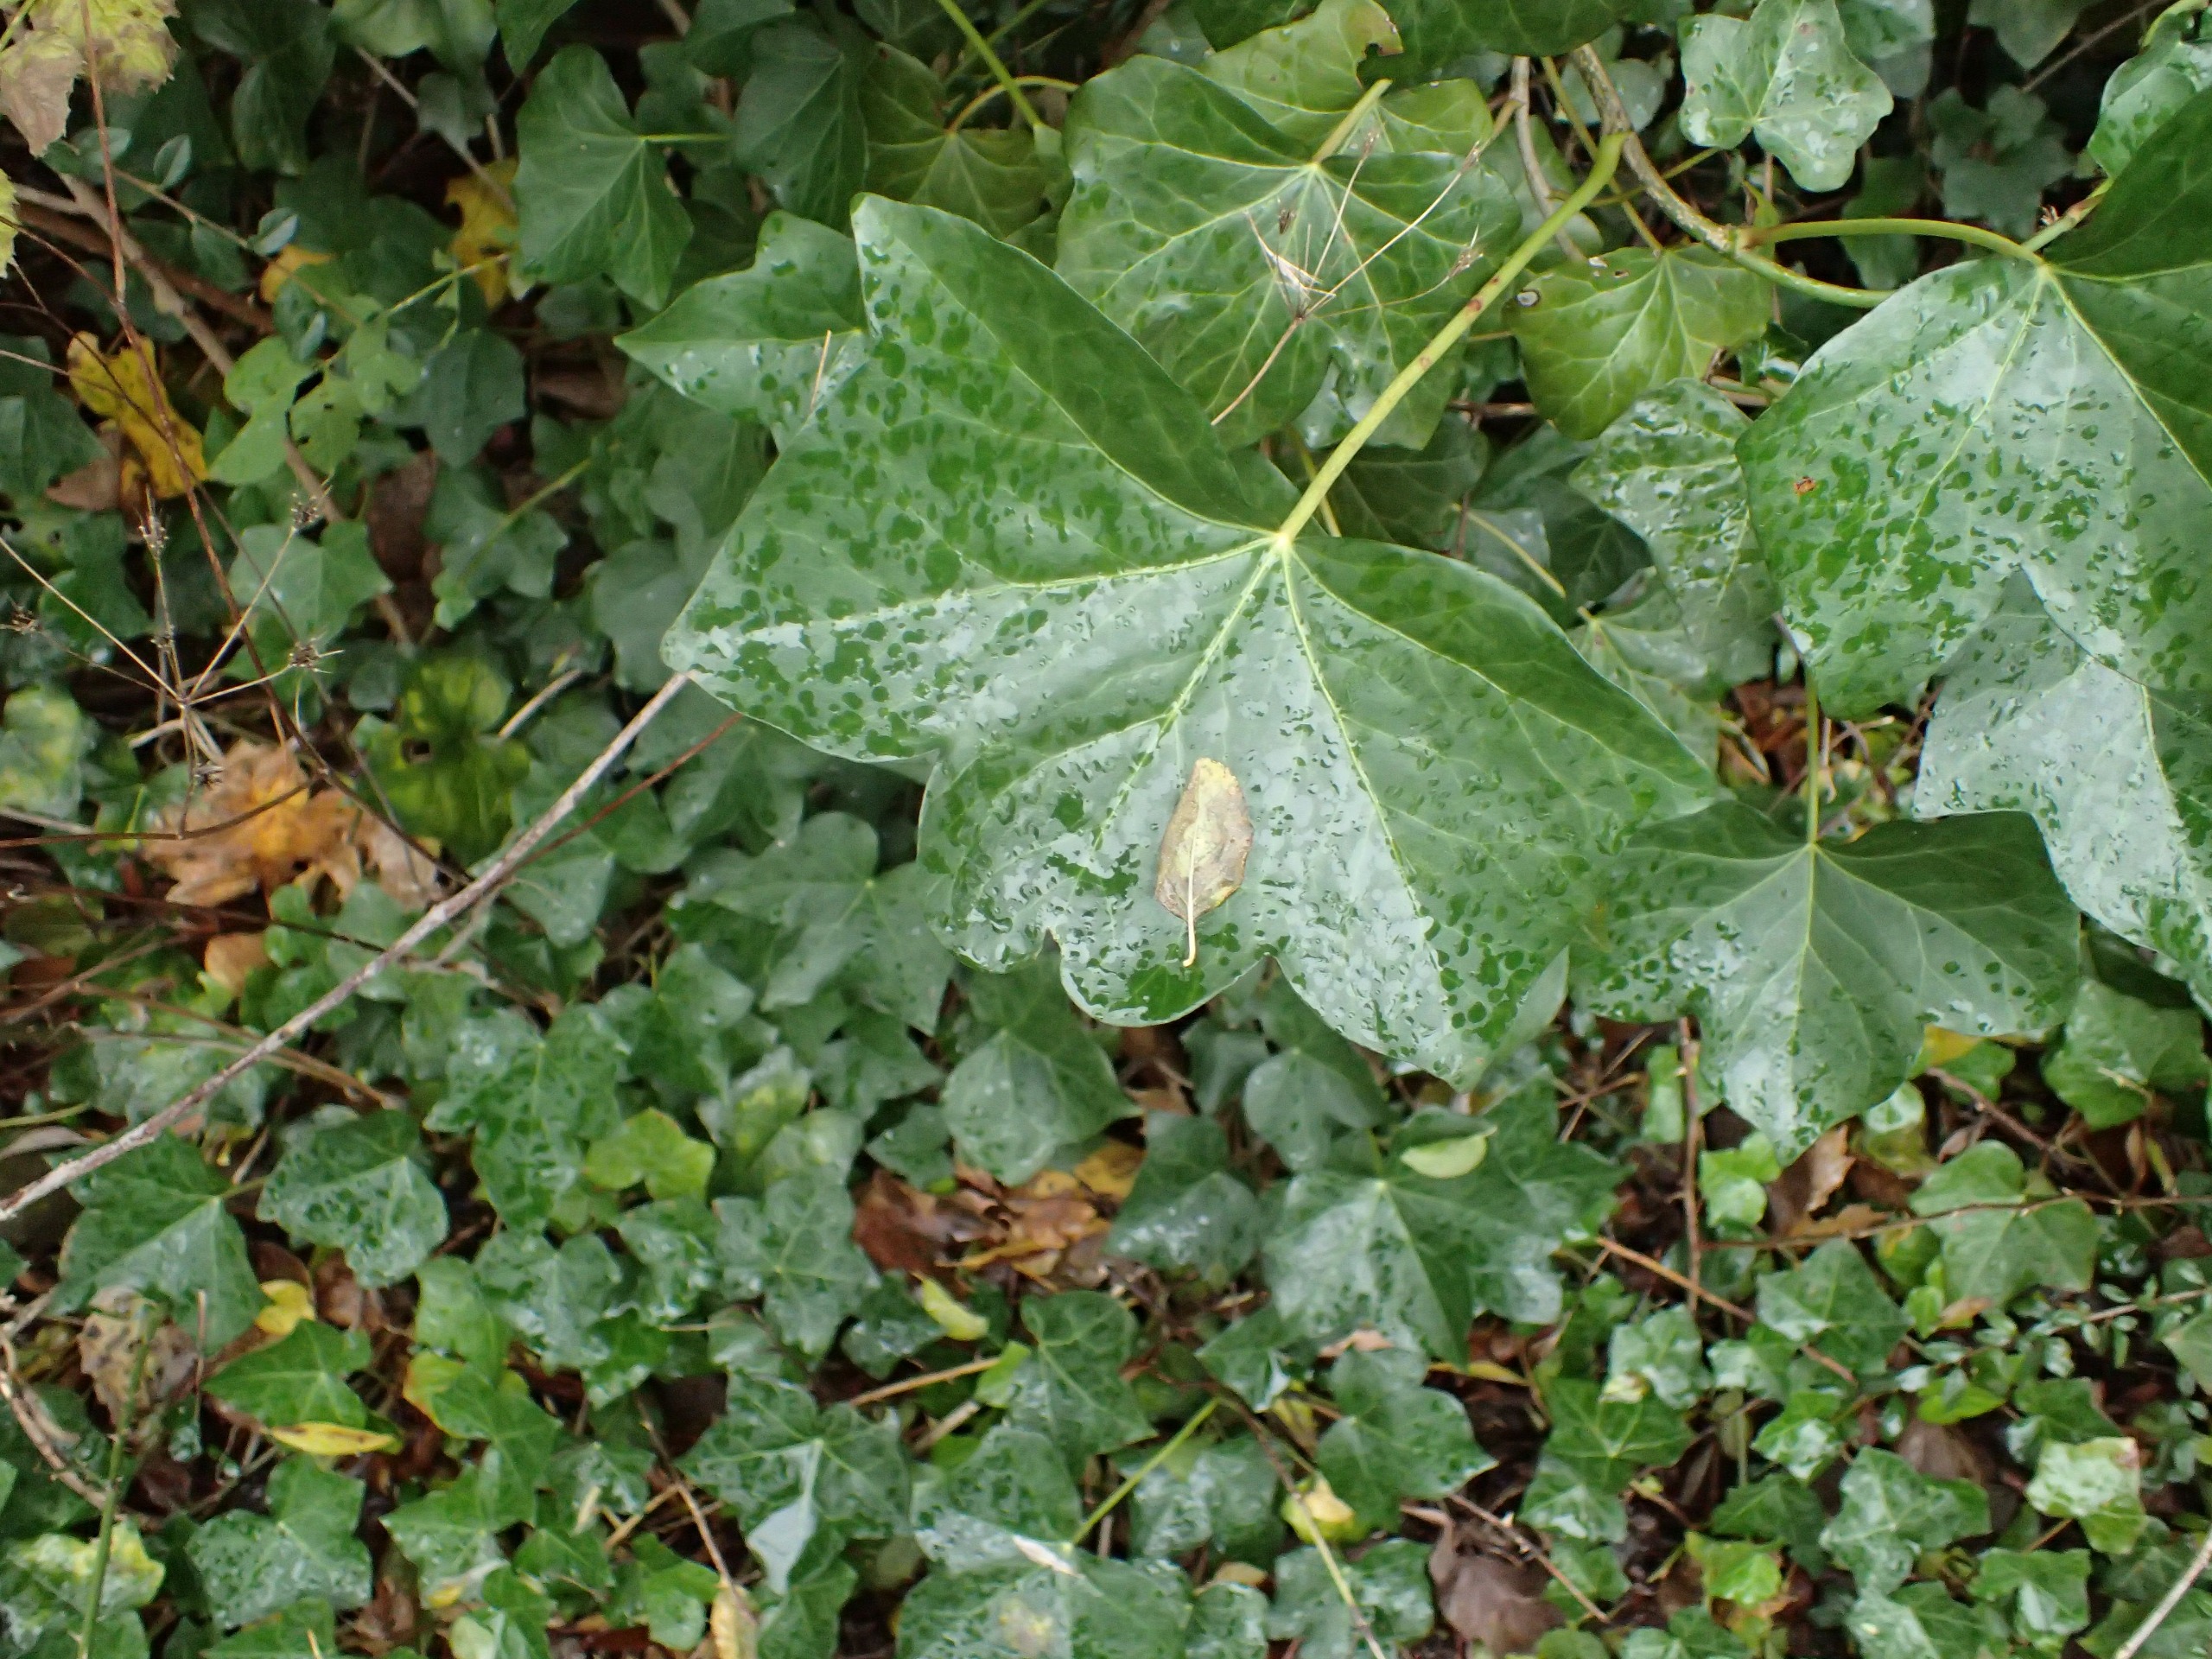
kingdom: Plantae
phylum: Tracheophyta
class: Magnoliopsida
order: Apiales
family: Araliaceae
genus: Hedera
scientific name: Hedera hibernica
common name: Irsk vedbend
